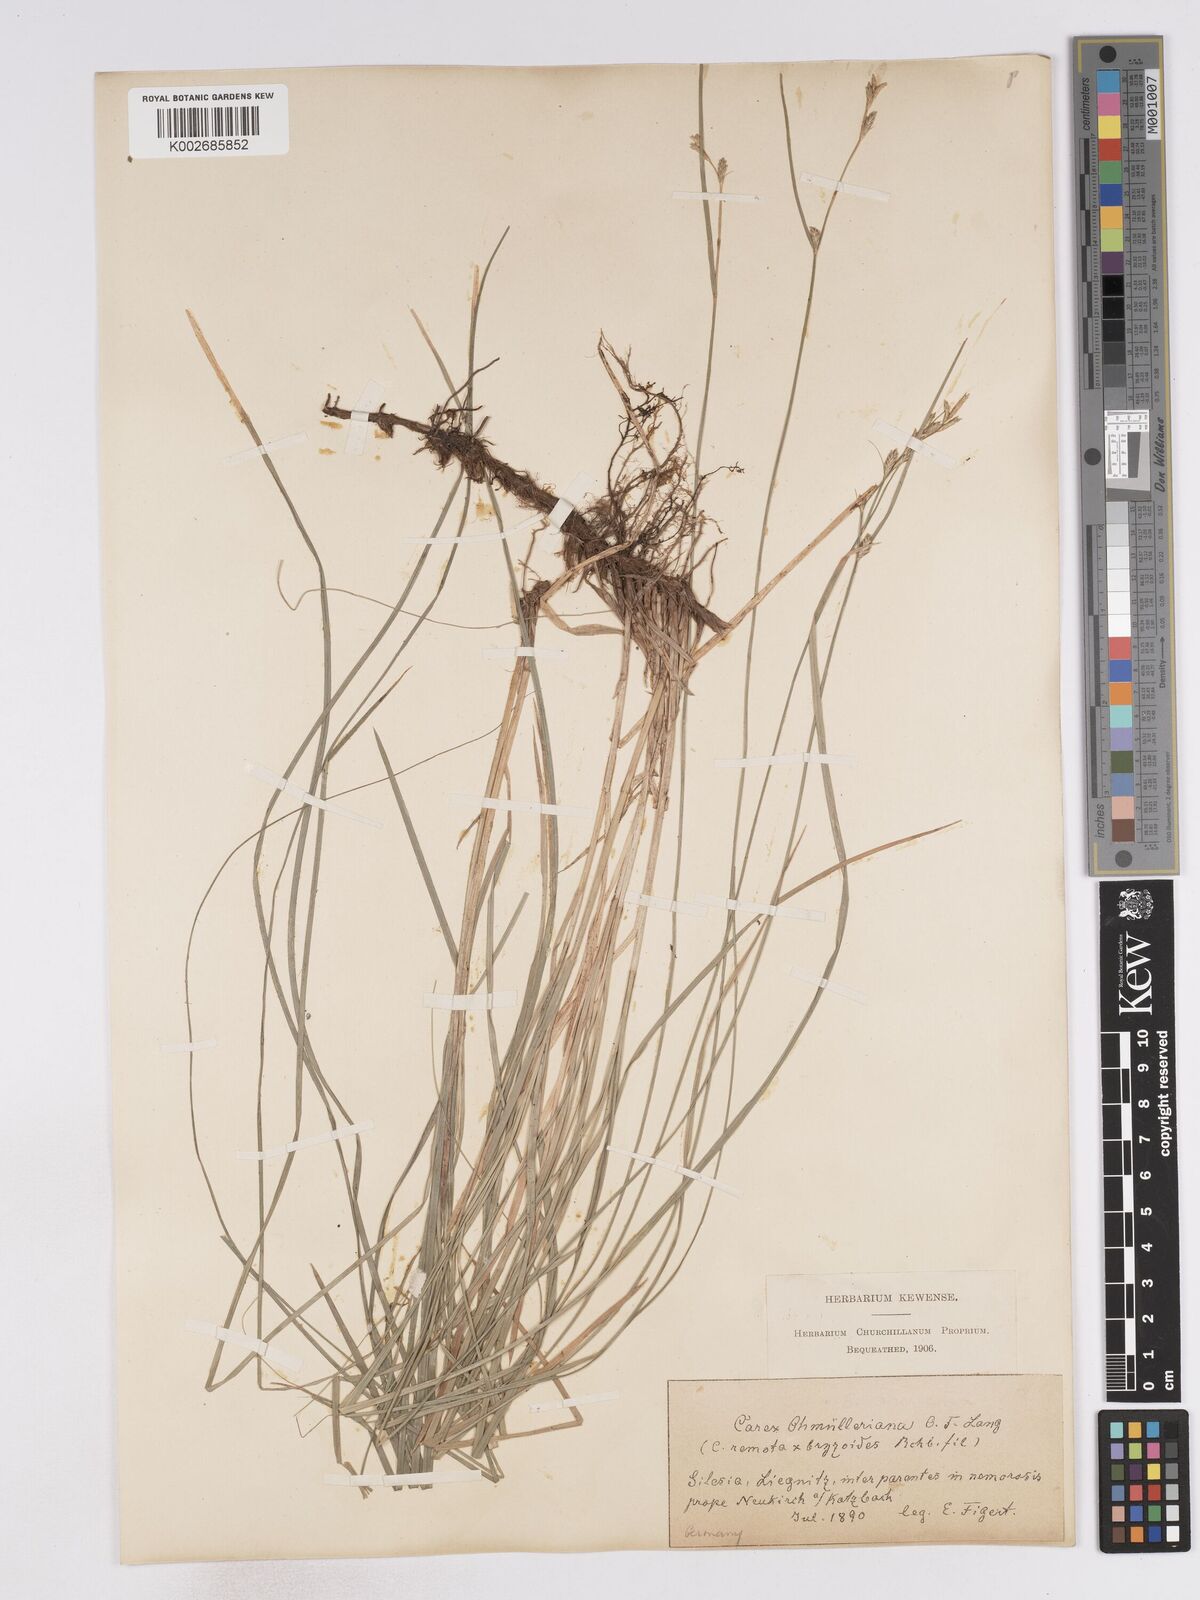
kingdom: Plantae
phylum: Tracheophyta
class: Liliopsida
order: Poales
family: Cyperaceae
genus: Carex
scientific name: Carex remota
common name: Remote sedge
